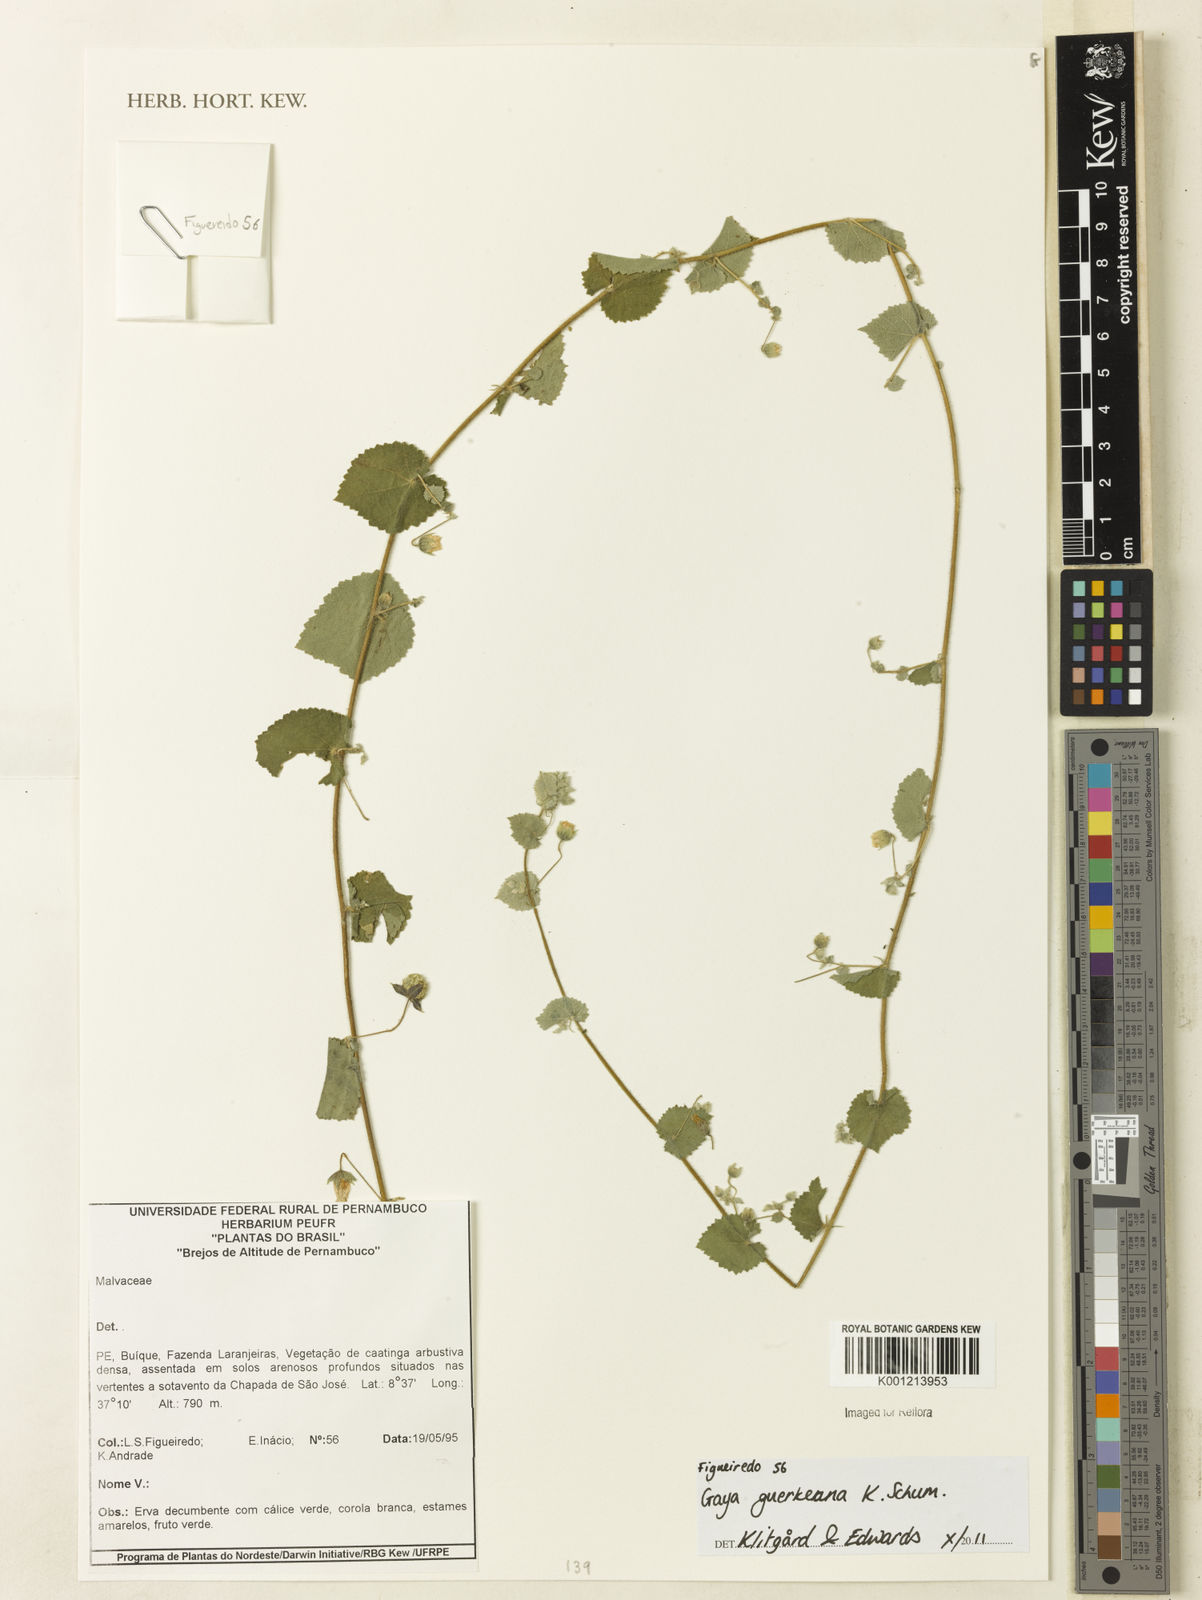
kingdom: Plantae
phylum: Tracheophyta
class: Magnoliopsida
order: Malvales
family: Malvaceae
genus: Gaya
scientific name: Gaya guerkeana
